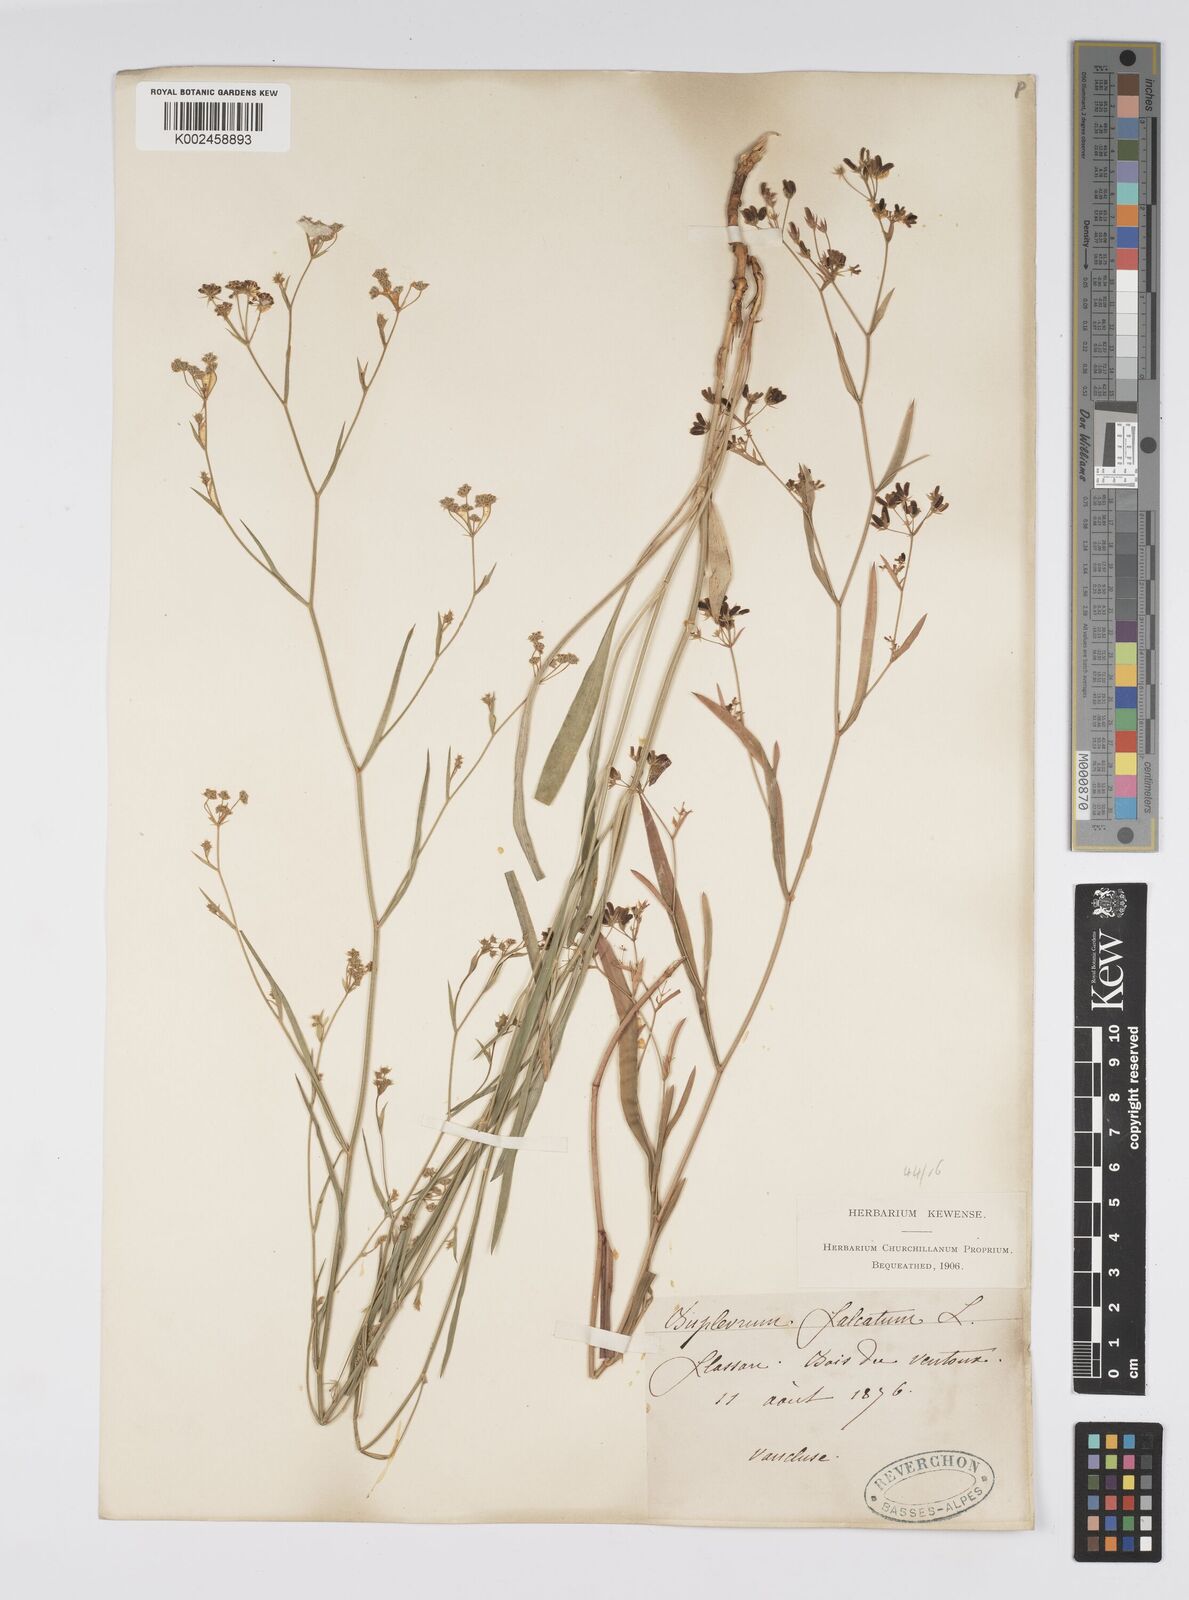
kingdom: Plantae
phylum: Tracheophyta
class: Magnoliopsida
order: Apiales
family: Apiaceae
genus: Bupleurum
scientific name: Bupleurum falcatum
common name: Sickle-leaved hare's-ear
